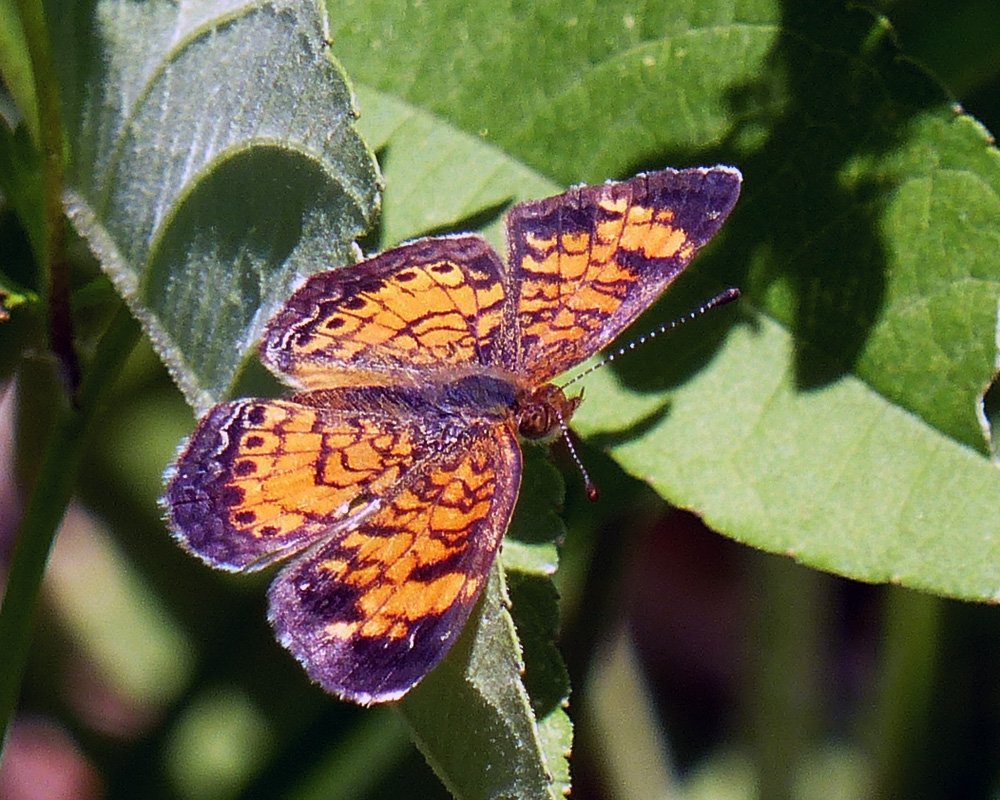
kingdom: Animalia
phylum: Arthropoda
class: Insecta
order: Lepidoptera
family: Nymphalidae
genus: Phyciodes
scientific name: Phyciodes tharos
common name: Pearl Crescent
